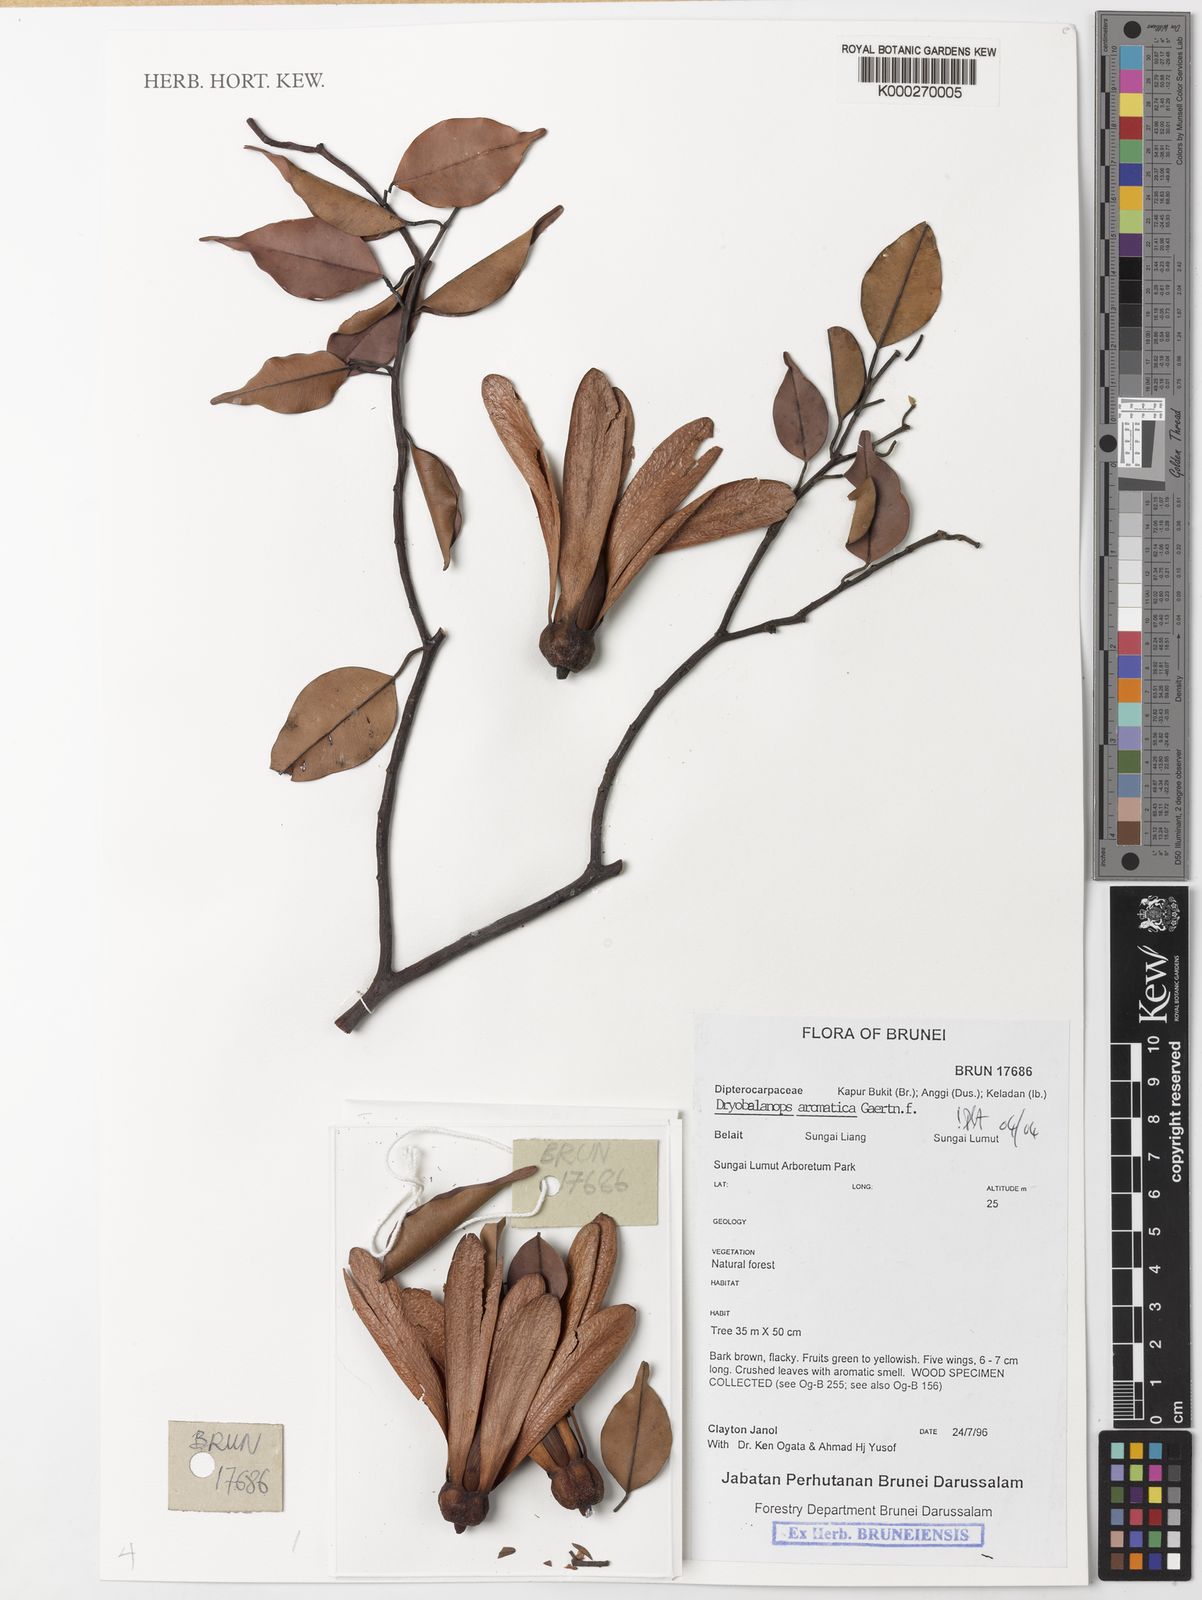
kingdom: Plantae
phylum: Tracheophyta
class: Magnoliopsida
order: Malvales
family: Dipterocarpaceae
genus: Dryobalanops
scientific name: Dryobalanops aromatica
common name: Malay camphor
